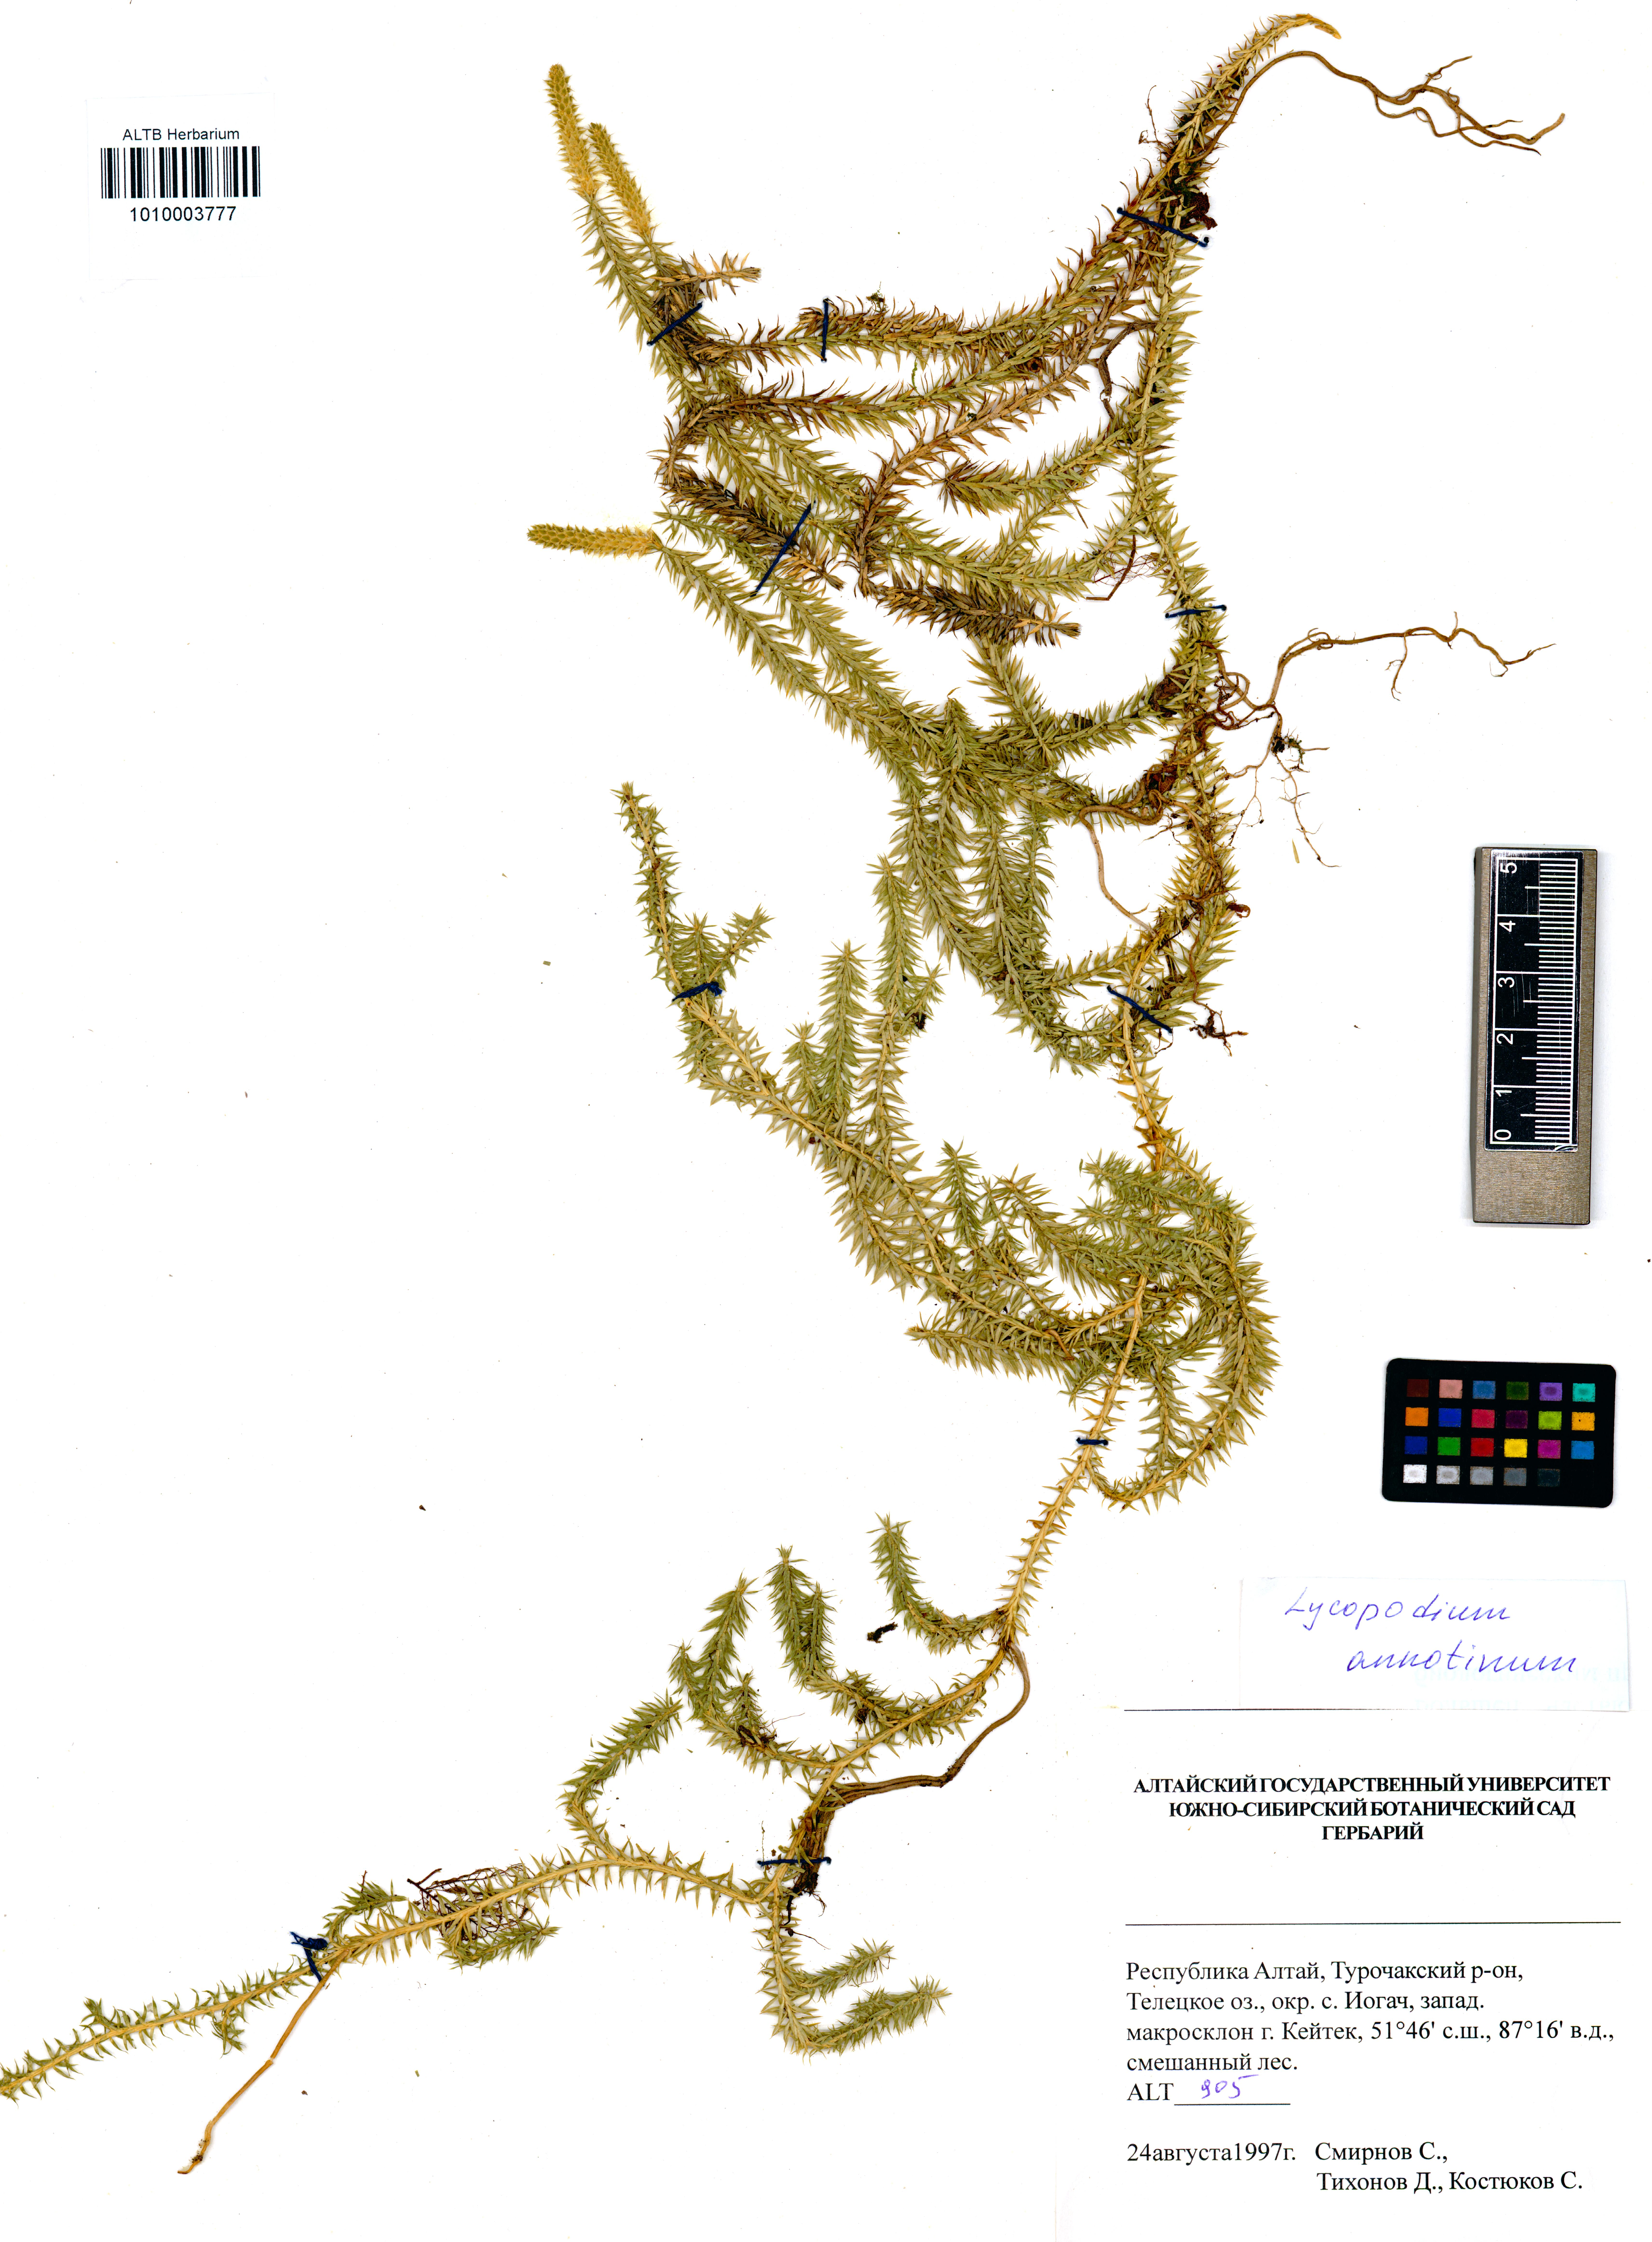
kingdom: Plantae
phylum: Tracheophyta
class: Lycopodiopsida
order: Lycopodiales
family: Lycopodiaceae
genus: Spinulum
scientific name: Spinulum annotinum
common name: Interrupted club-moss
